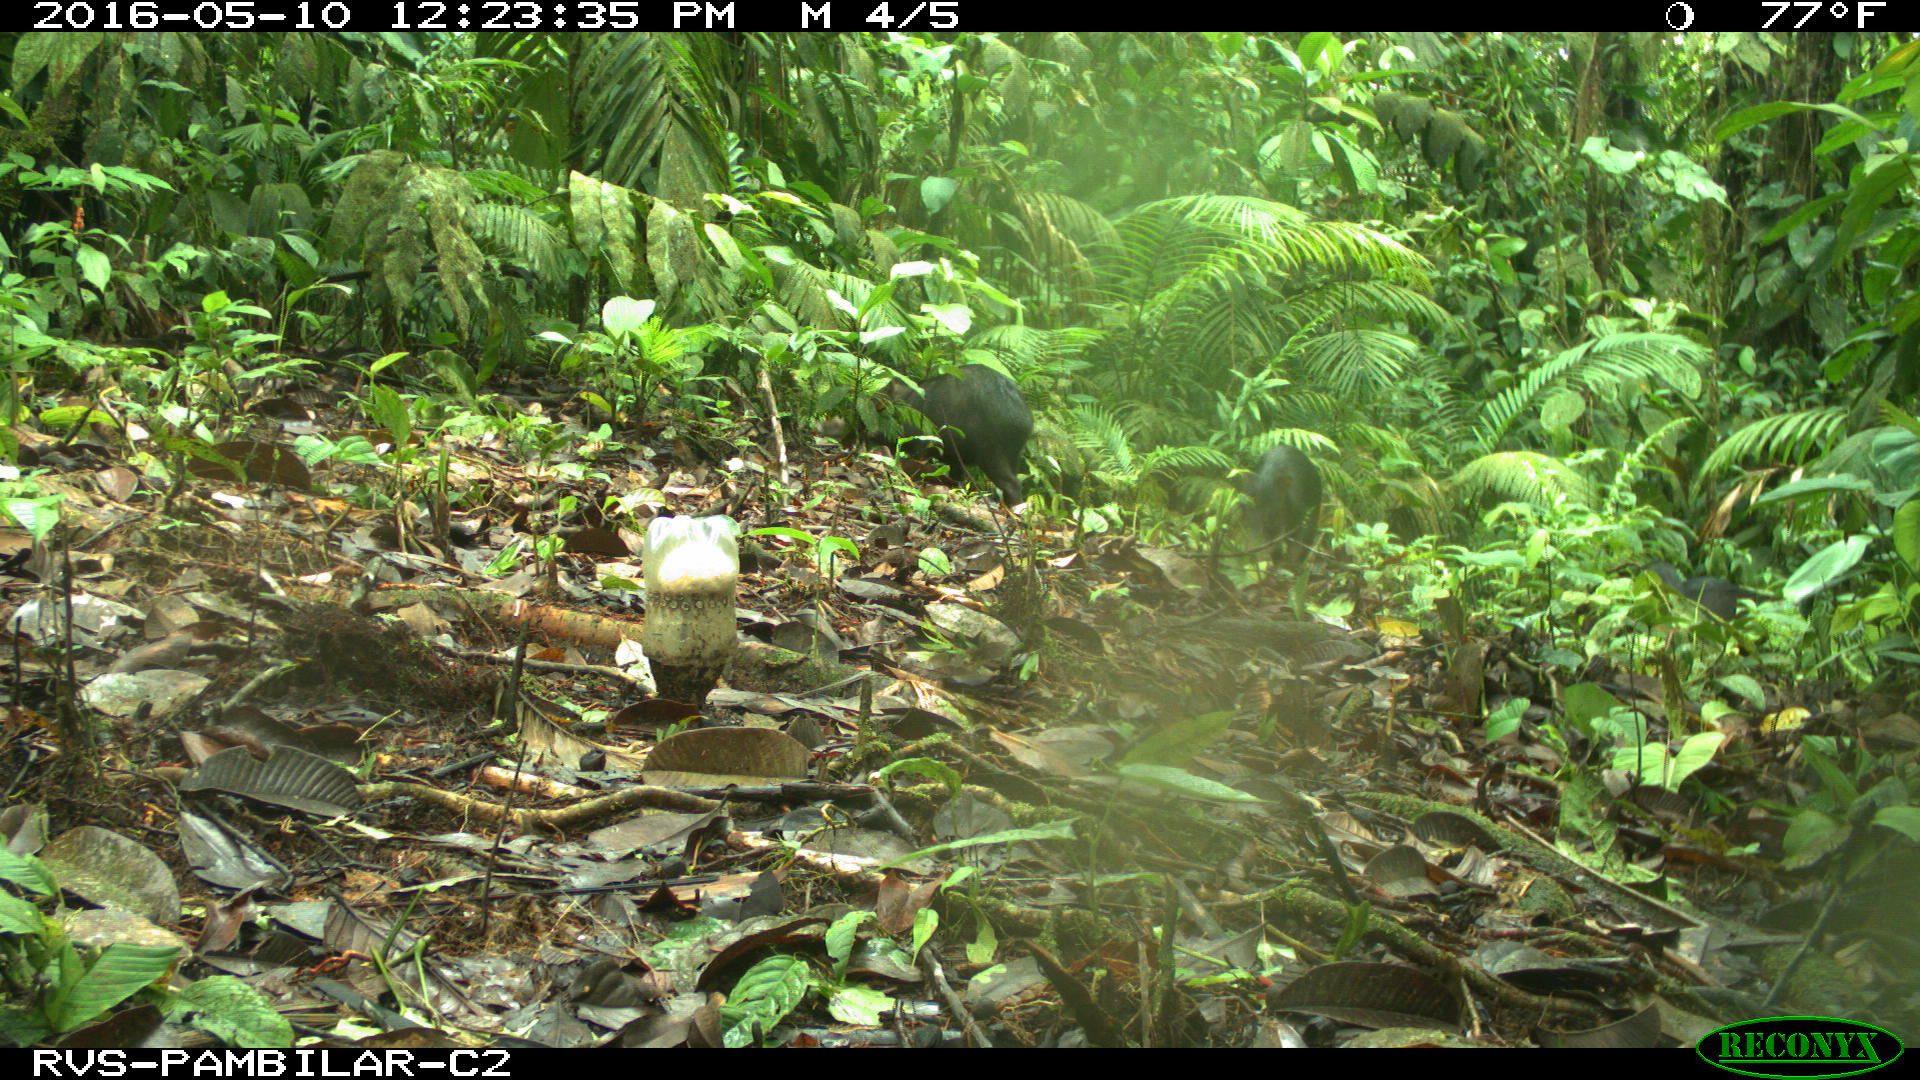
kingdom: Animalia
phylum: Chordata
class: Mammalia
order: Artiodactyla
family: Tayassuidae
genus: Tayassu
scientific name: Tayassu pecari
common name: White-lipped peccary
